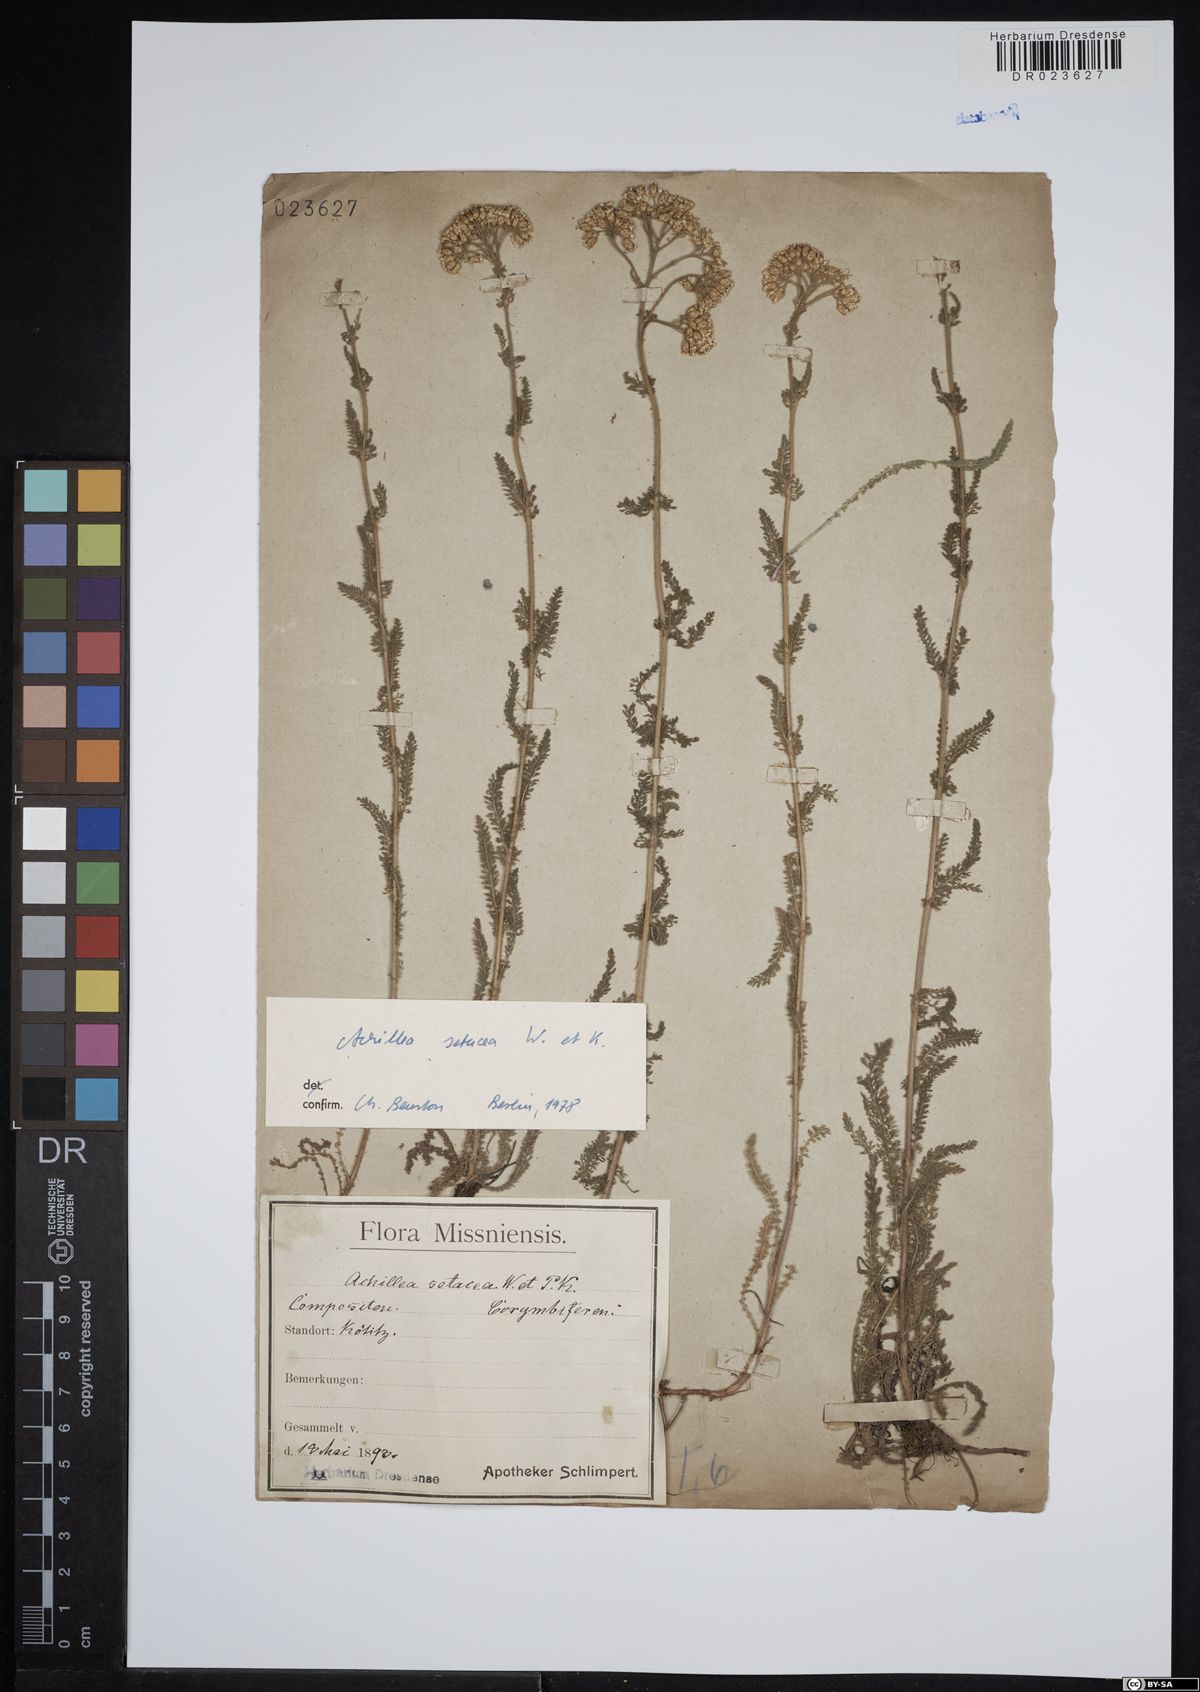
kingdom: Plantae
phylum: Tracheophyta
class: Magnoliopsida
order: Asterales
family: Asteraceae
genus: Achillea
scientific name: Achillea setacea
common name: Bristly yarrow
